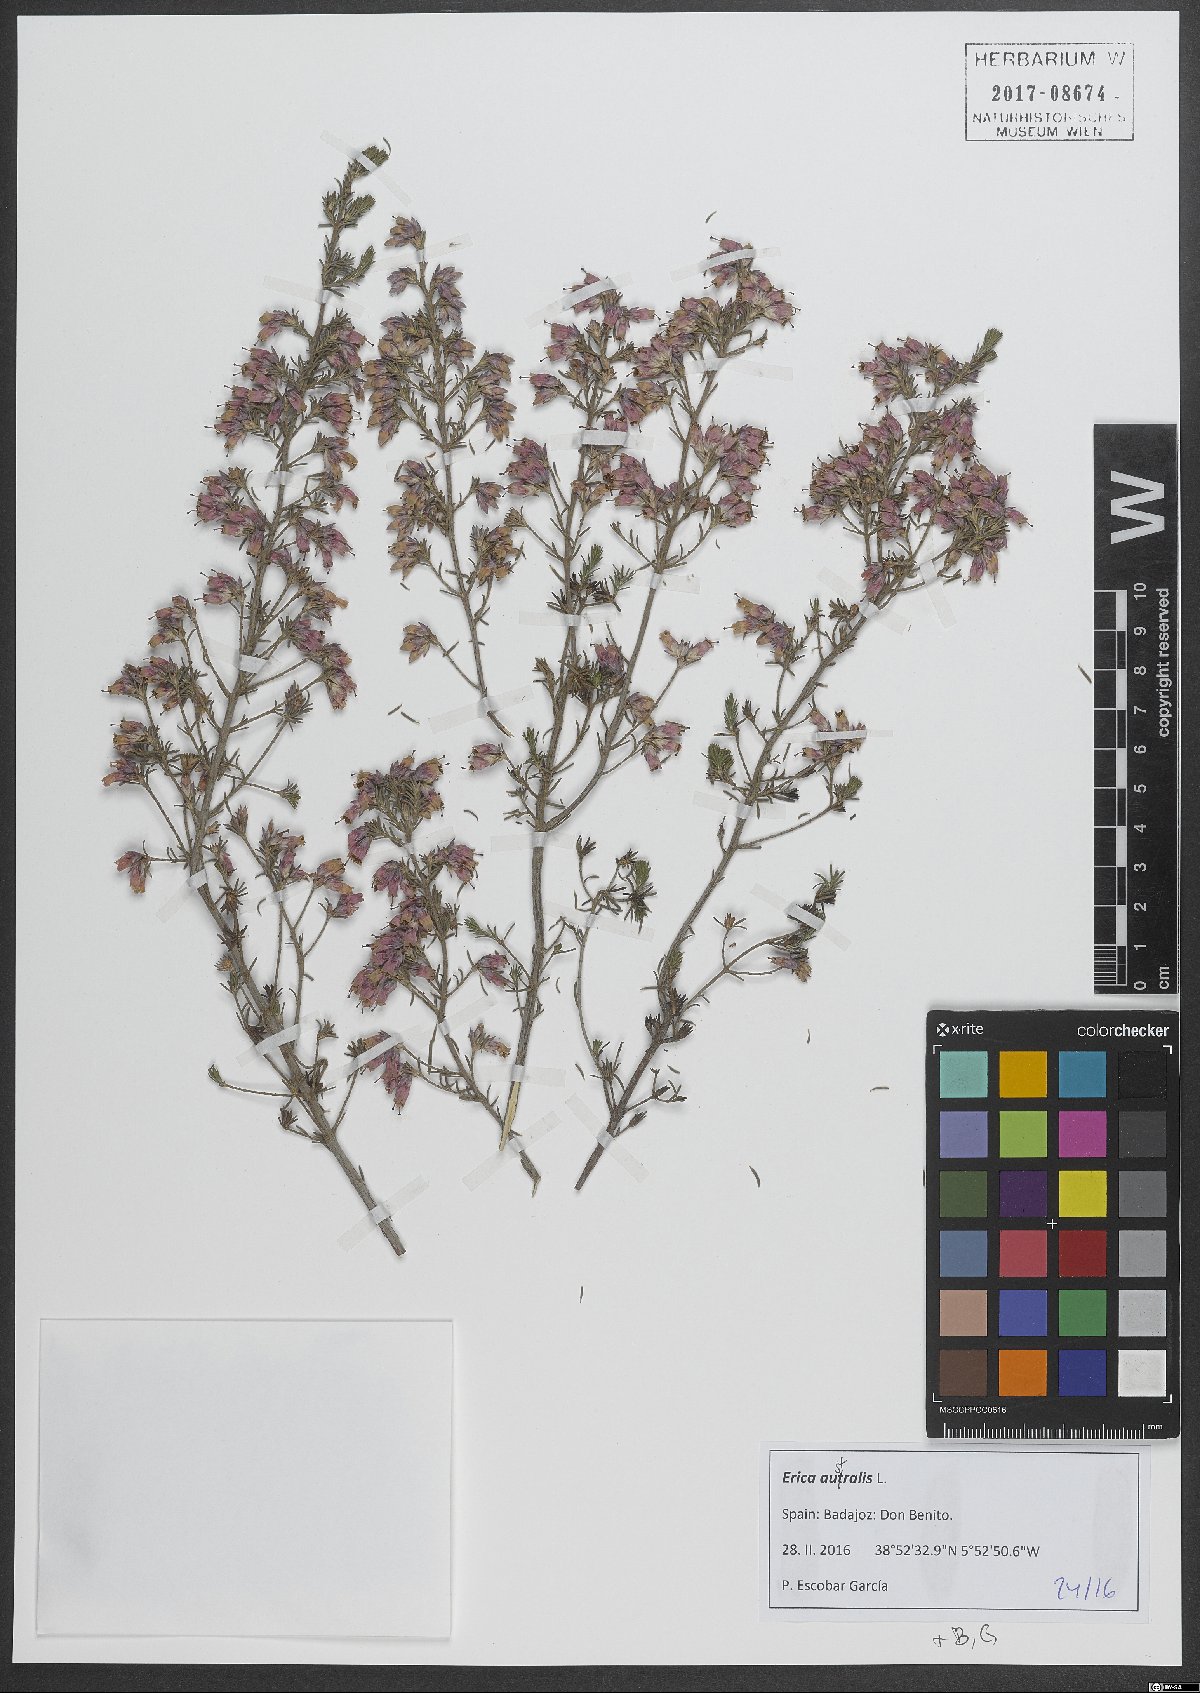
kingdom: Plantae
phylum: Tracheophyta
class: Magnoliopsida
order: Ericales
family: Ericaceae
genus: Erica
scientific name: Erica australis
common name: Spanish heath
